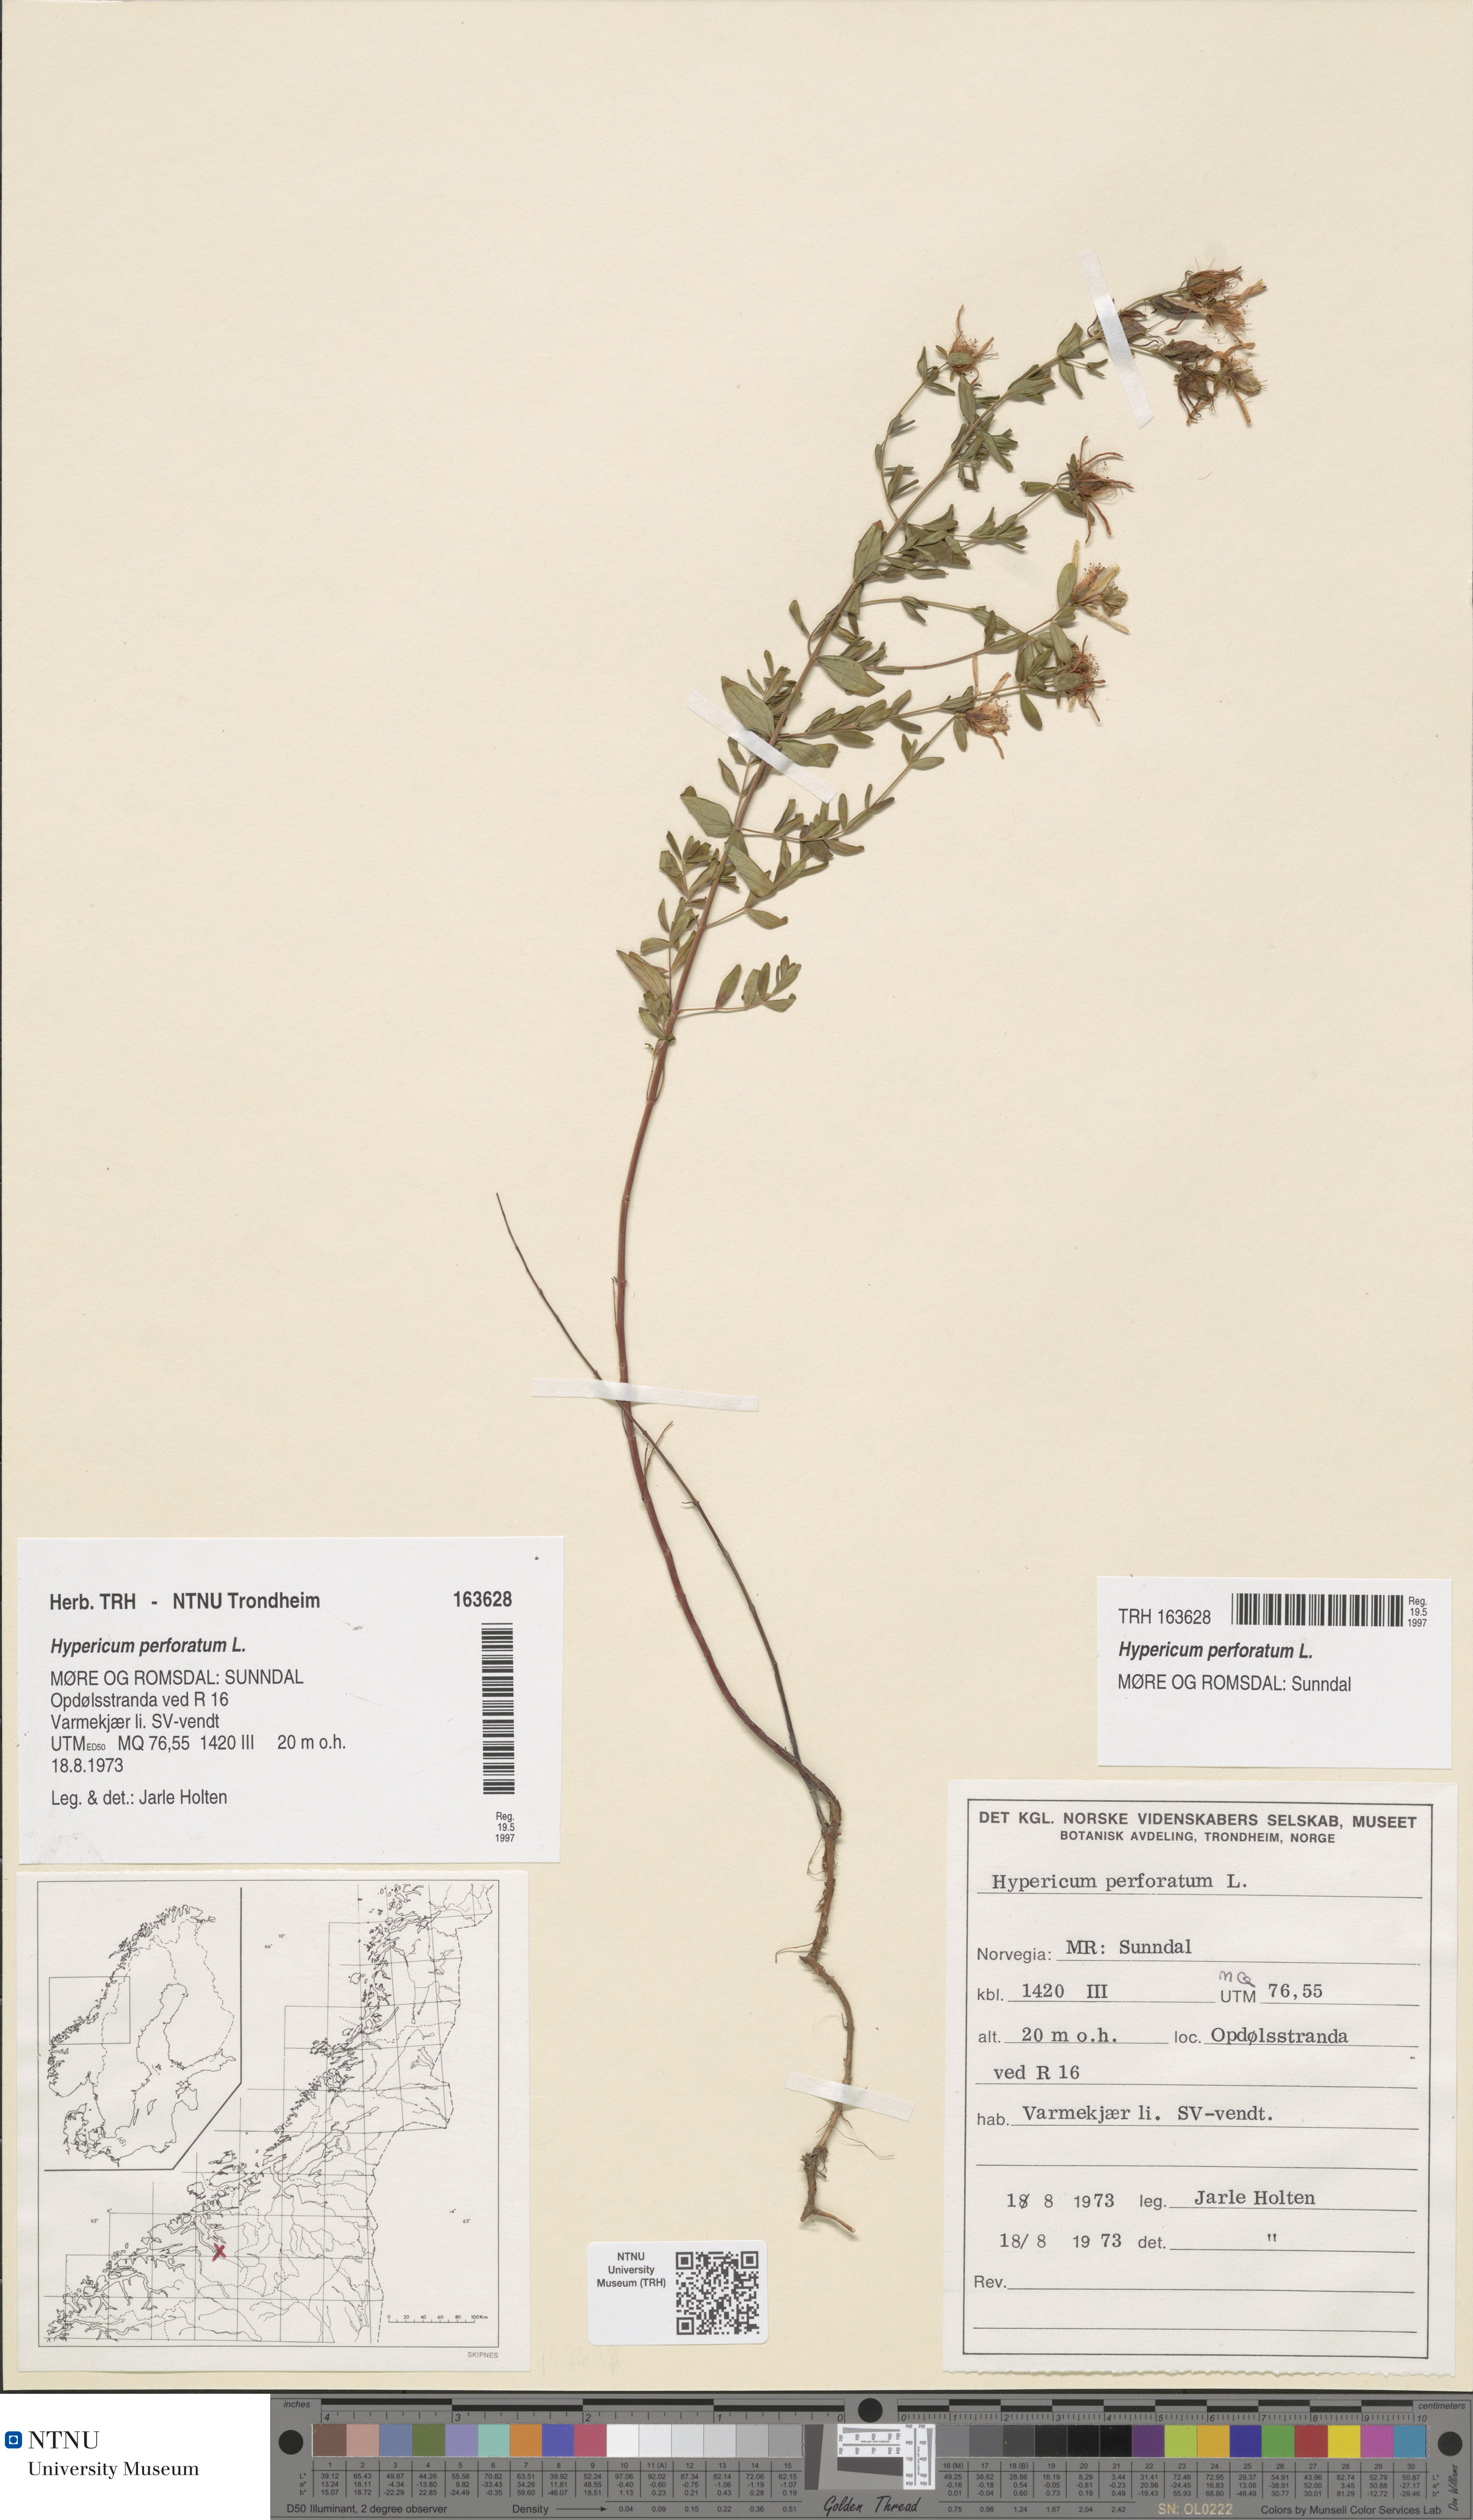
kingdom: Plantae
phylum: Tracheophyta
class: Magnoliopsida
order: Malpighiales
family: Hypericaceae
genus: Hypericum
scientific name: Hypericum perforatum
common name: Common st. johnswort
